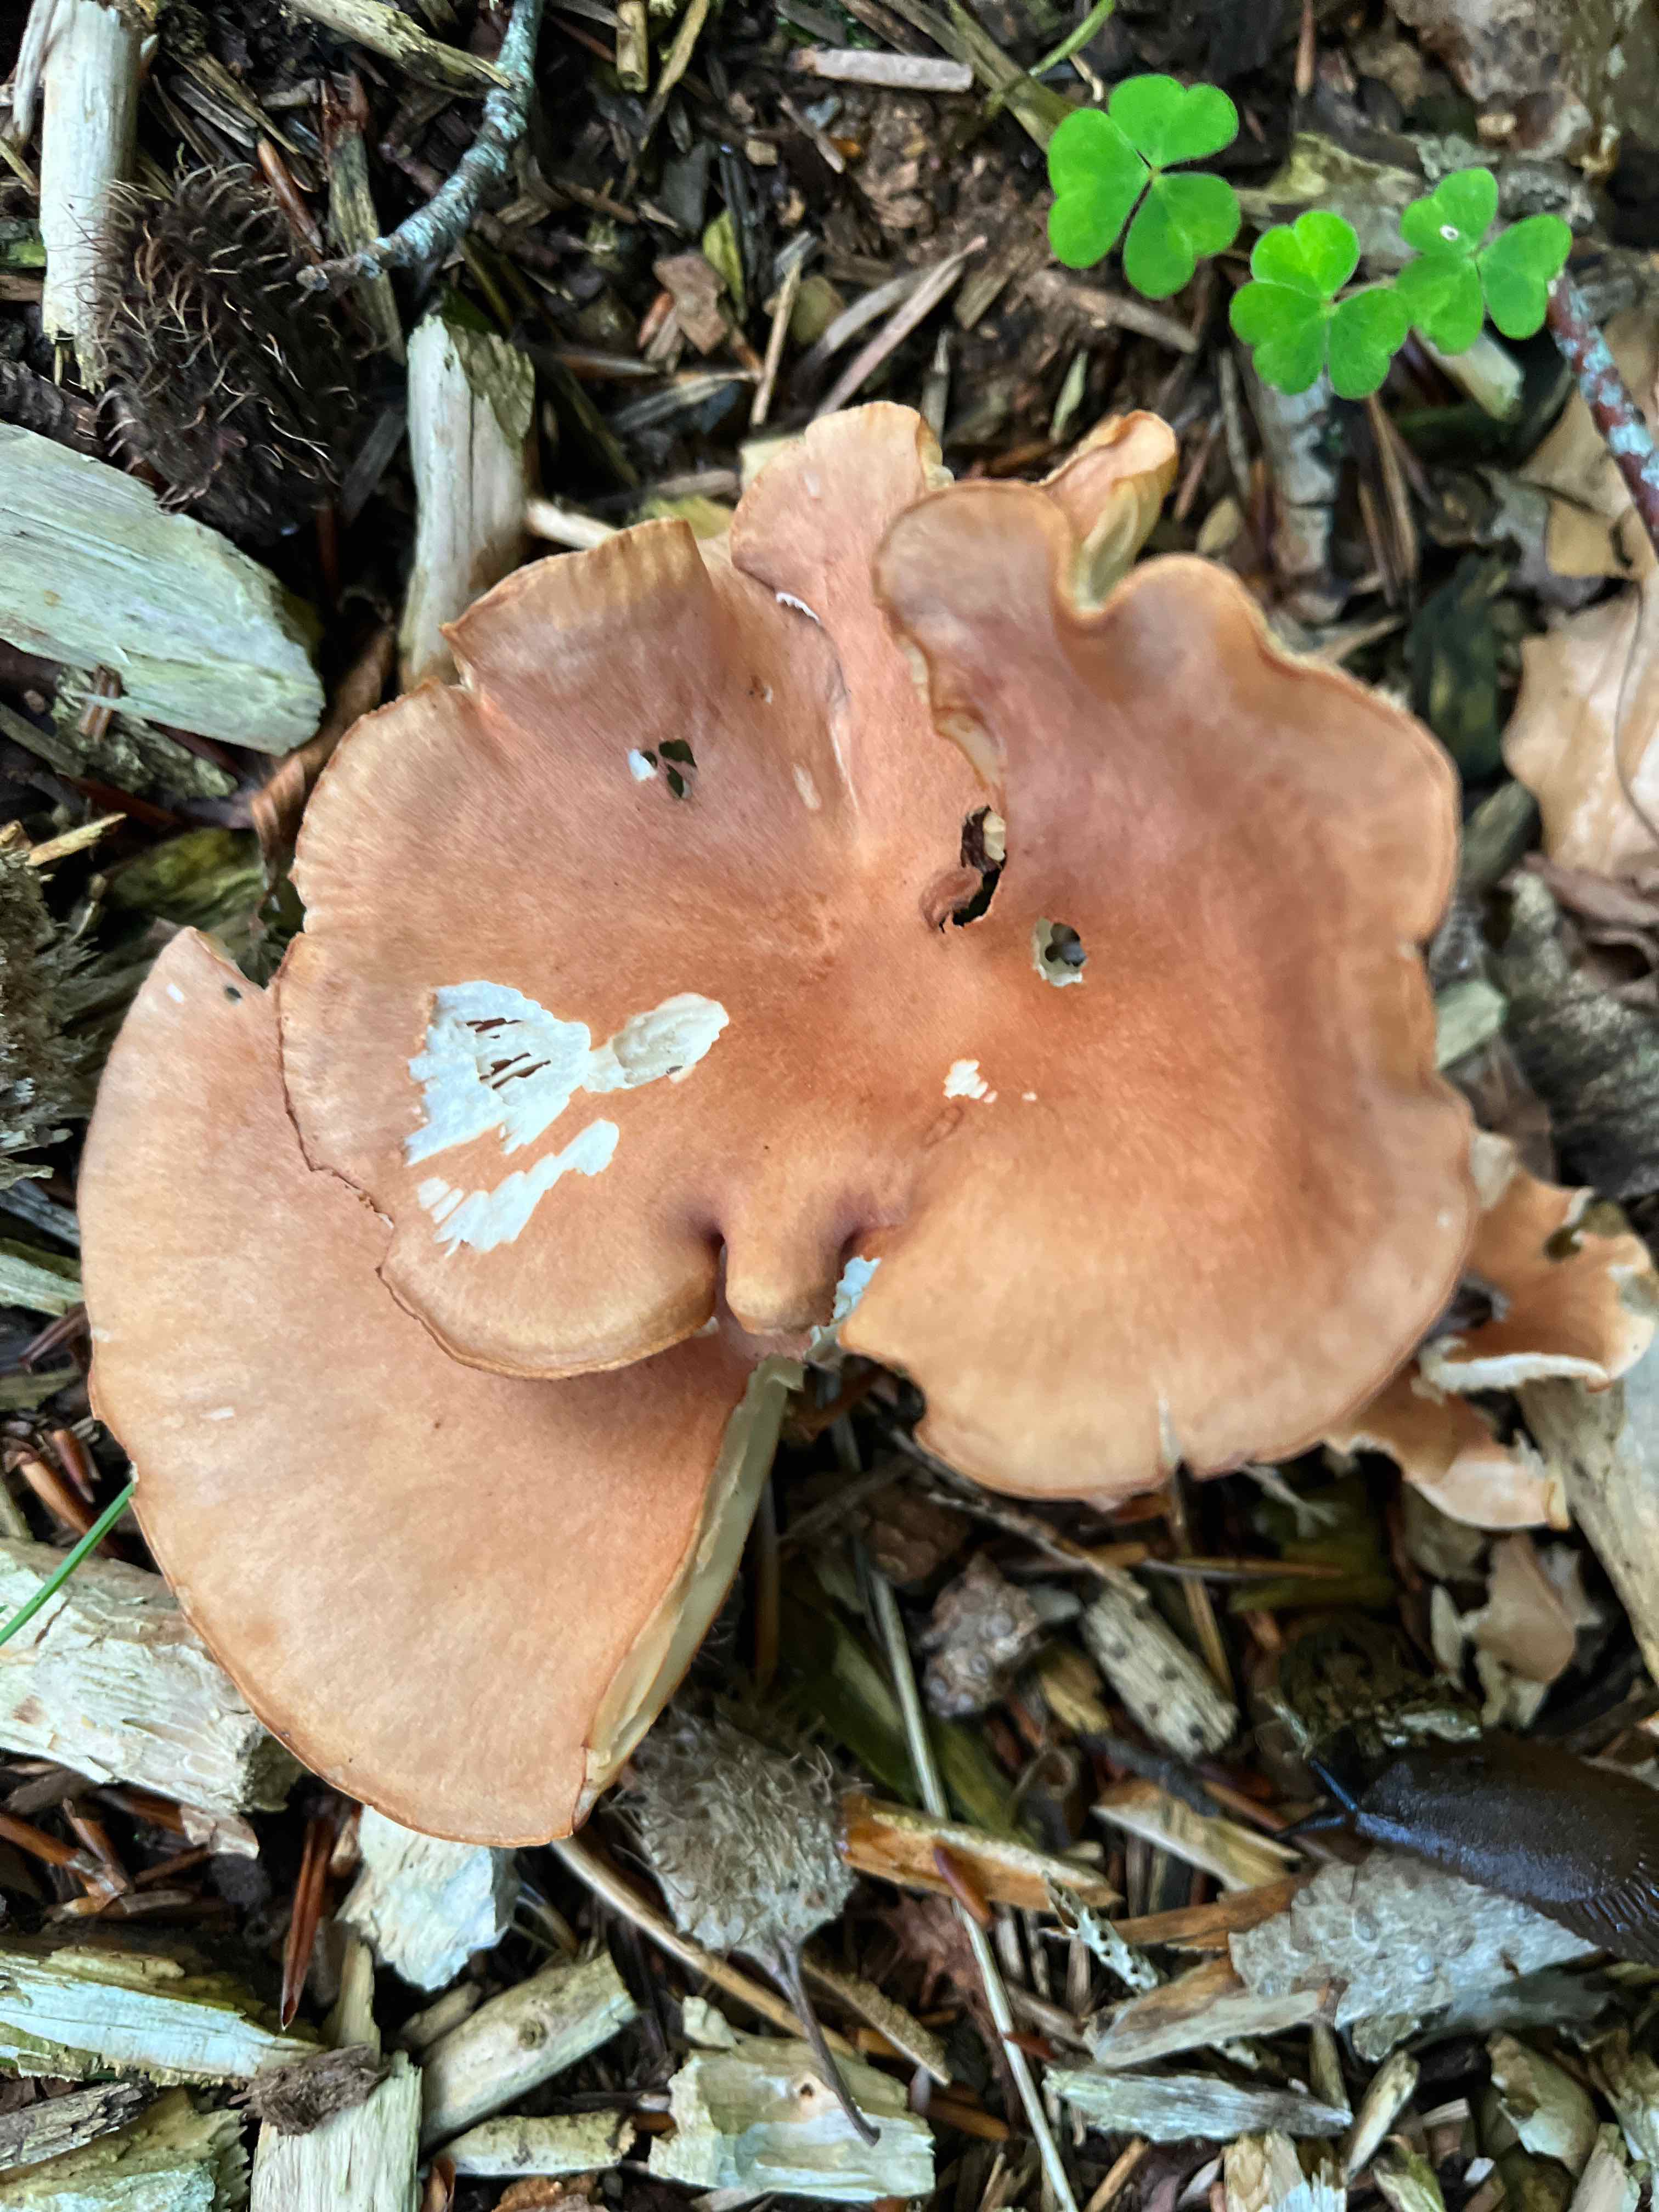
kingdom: Fungi
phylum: Basidiomycota
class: Agaricomycetes
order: Agaricales
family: Tricholomataceae
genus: Infundibulicybe
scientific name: Infundibulicybe gibba
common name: almindelig tragthat
